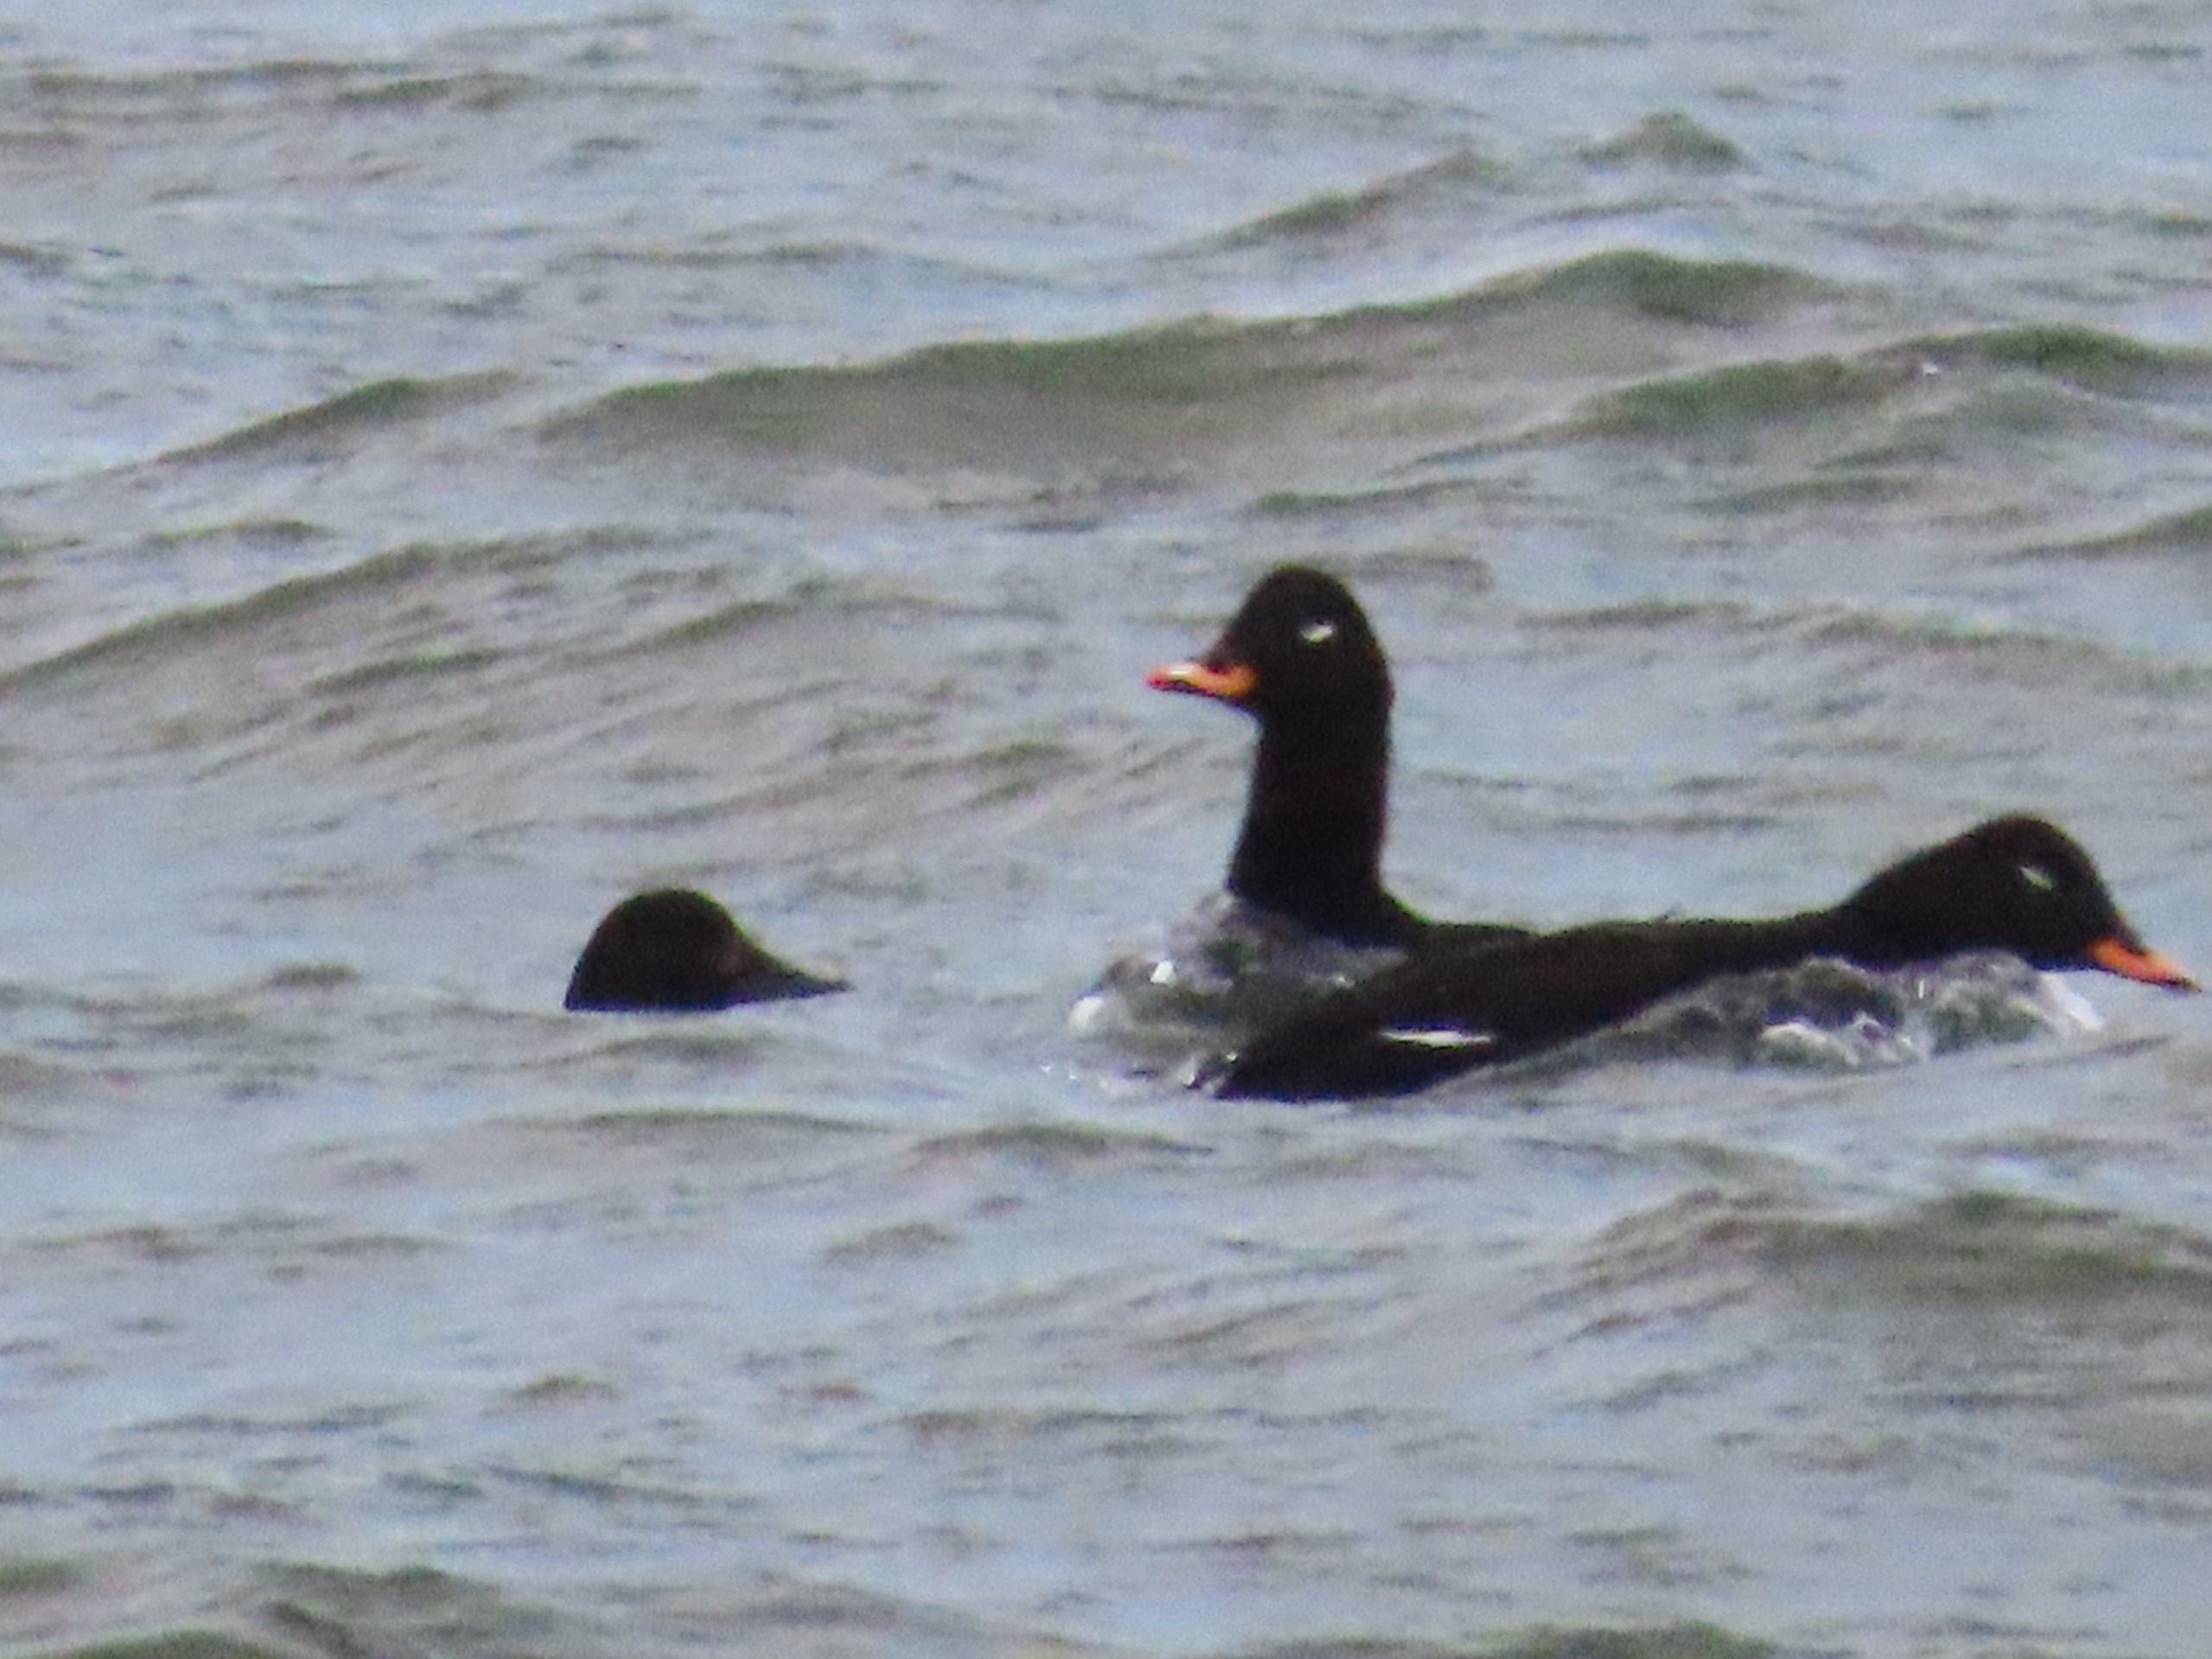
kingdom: Animalia
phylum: Chordata
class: Aves
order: Anseriformes
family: Anatidae
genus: Melanitta
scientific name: Melanitta fusca
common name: Fløjlsand
